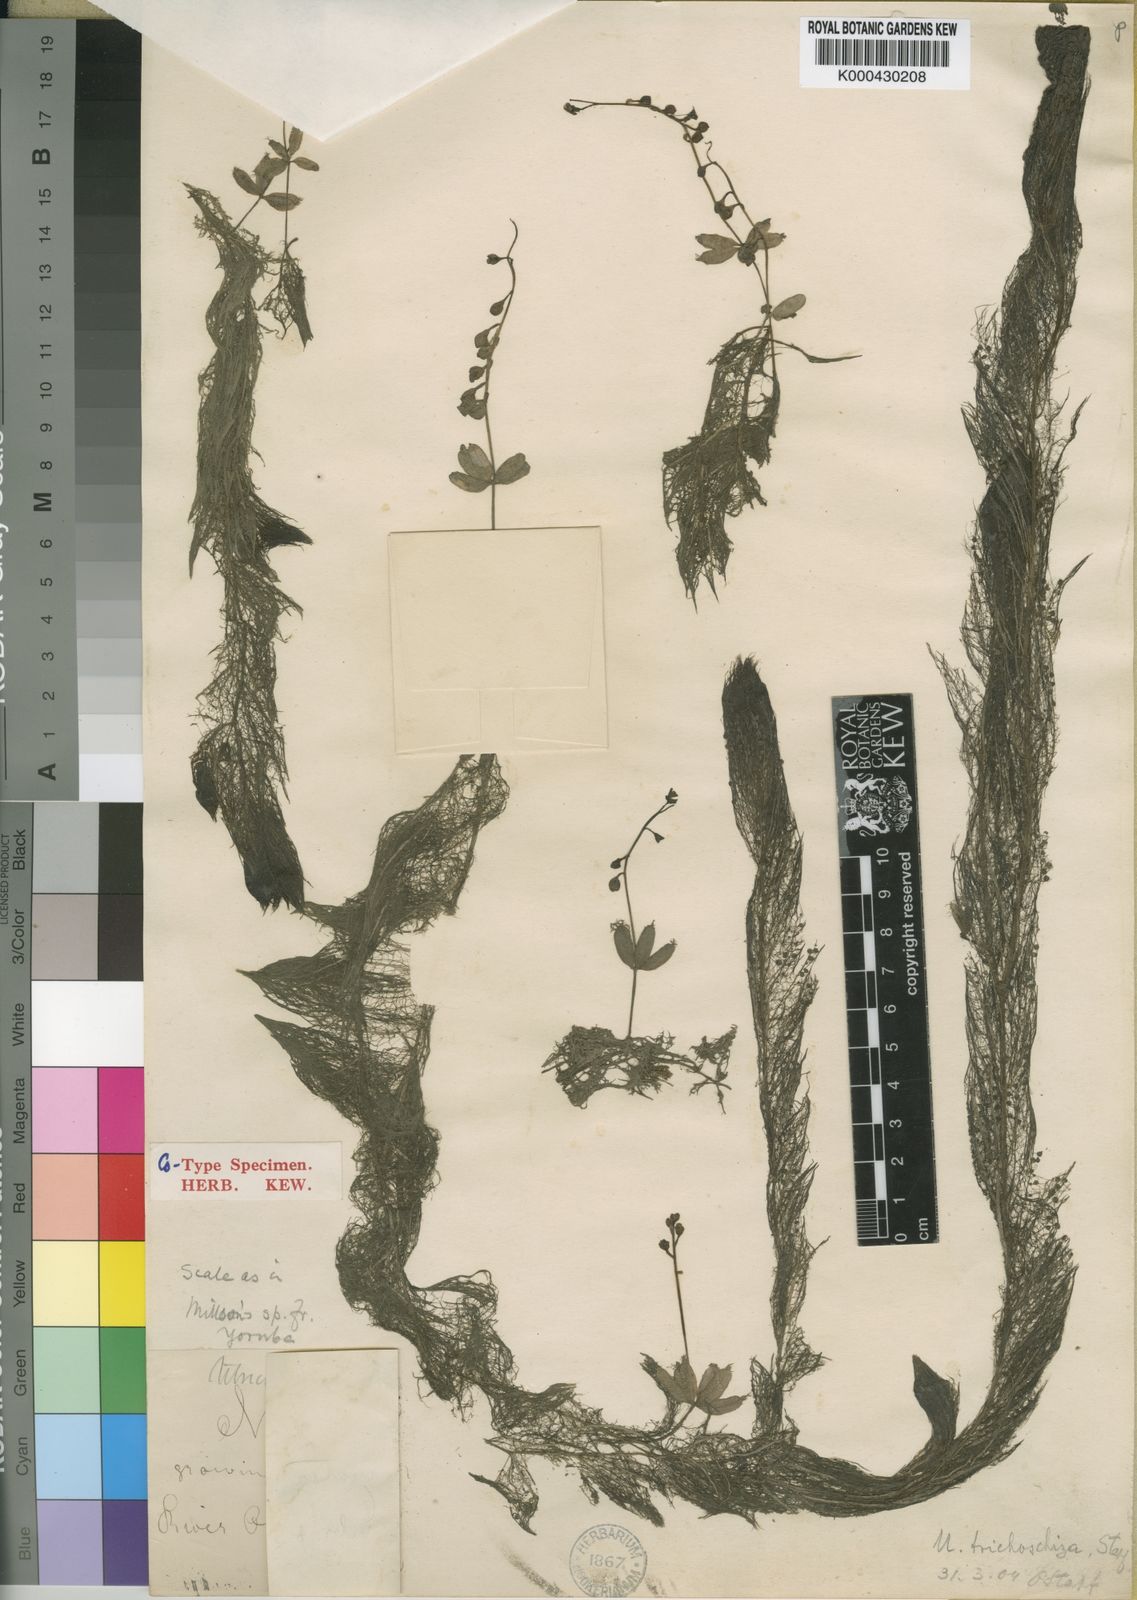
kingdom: Plantae
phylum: Tracheophyta
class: Magnoliopsida
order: Lamiales
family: Lentibulariaceae
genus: Utricularia
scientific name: Utricularia inflexa
